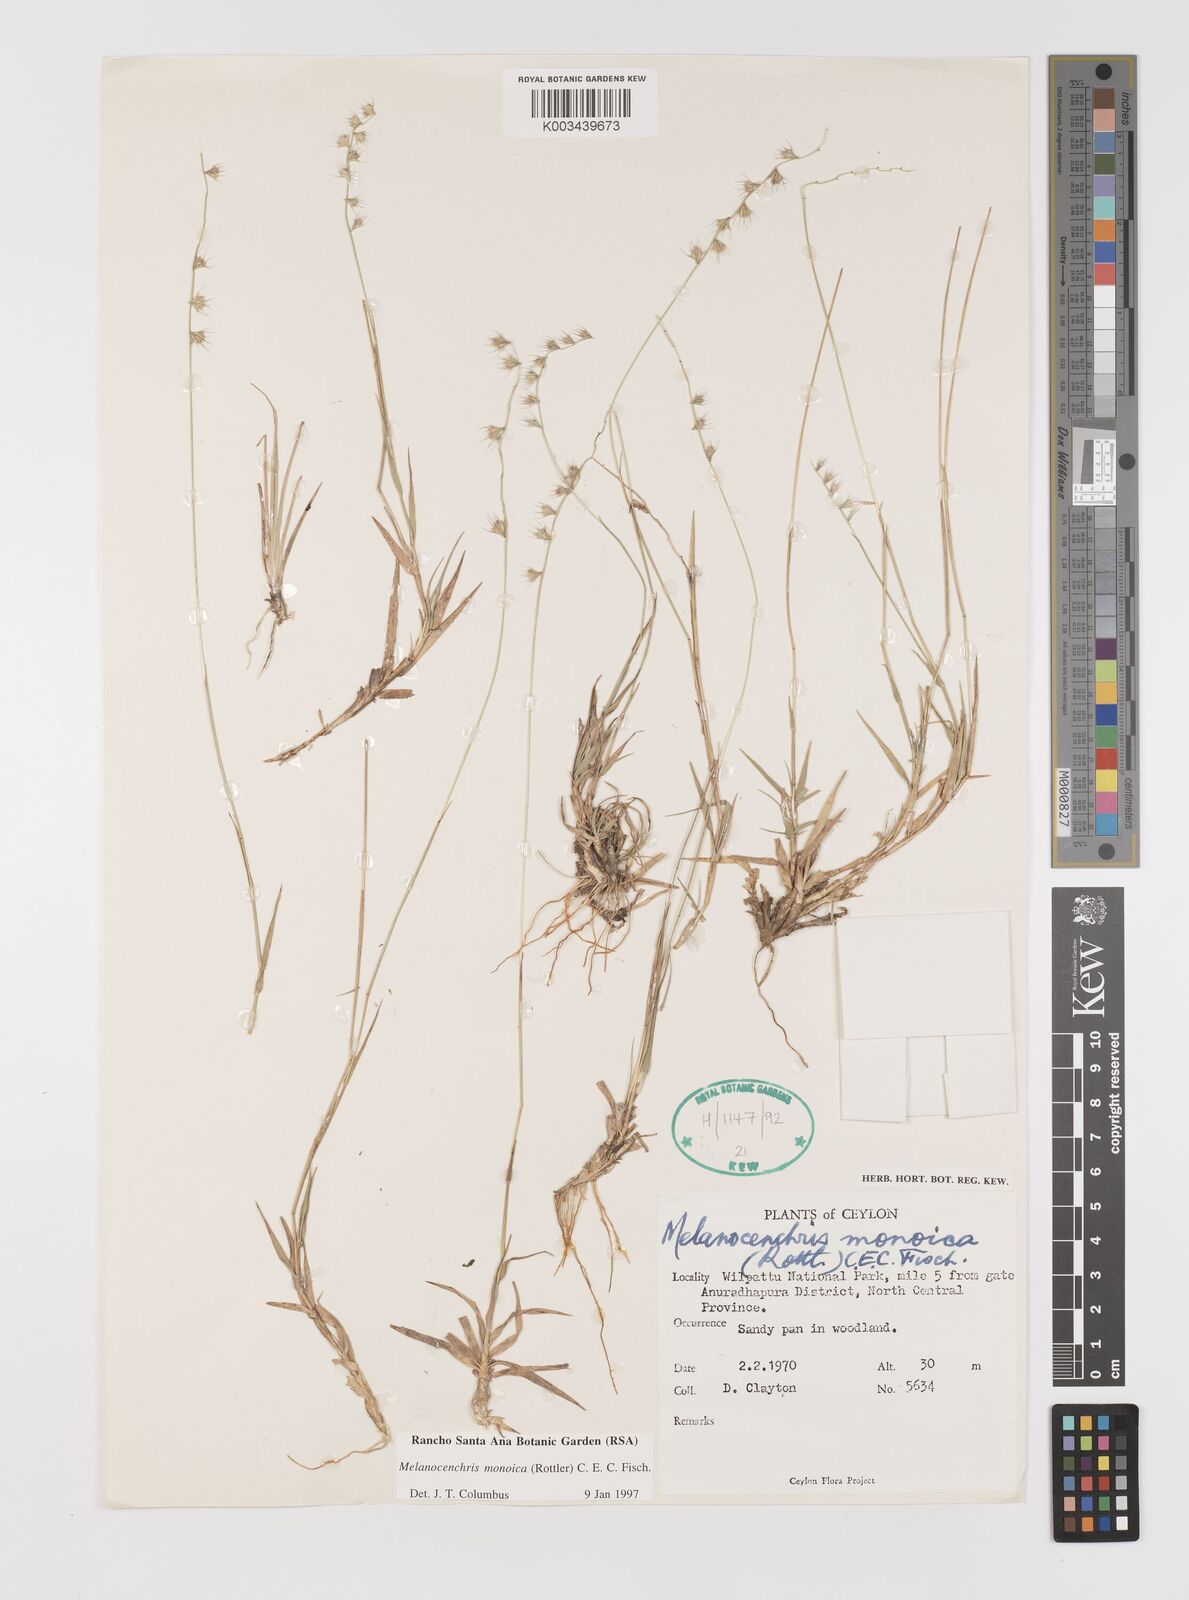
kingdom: Plantae
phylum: Tracheophyta
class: Liliopsida
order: Poales
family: Poaceae
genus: Melanocenchris
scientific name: Melanocenchris rothiana
